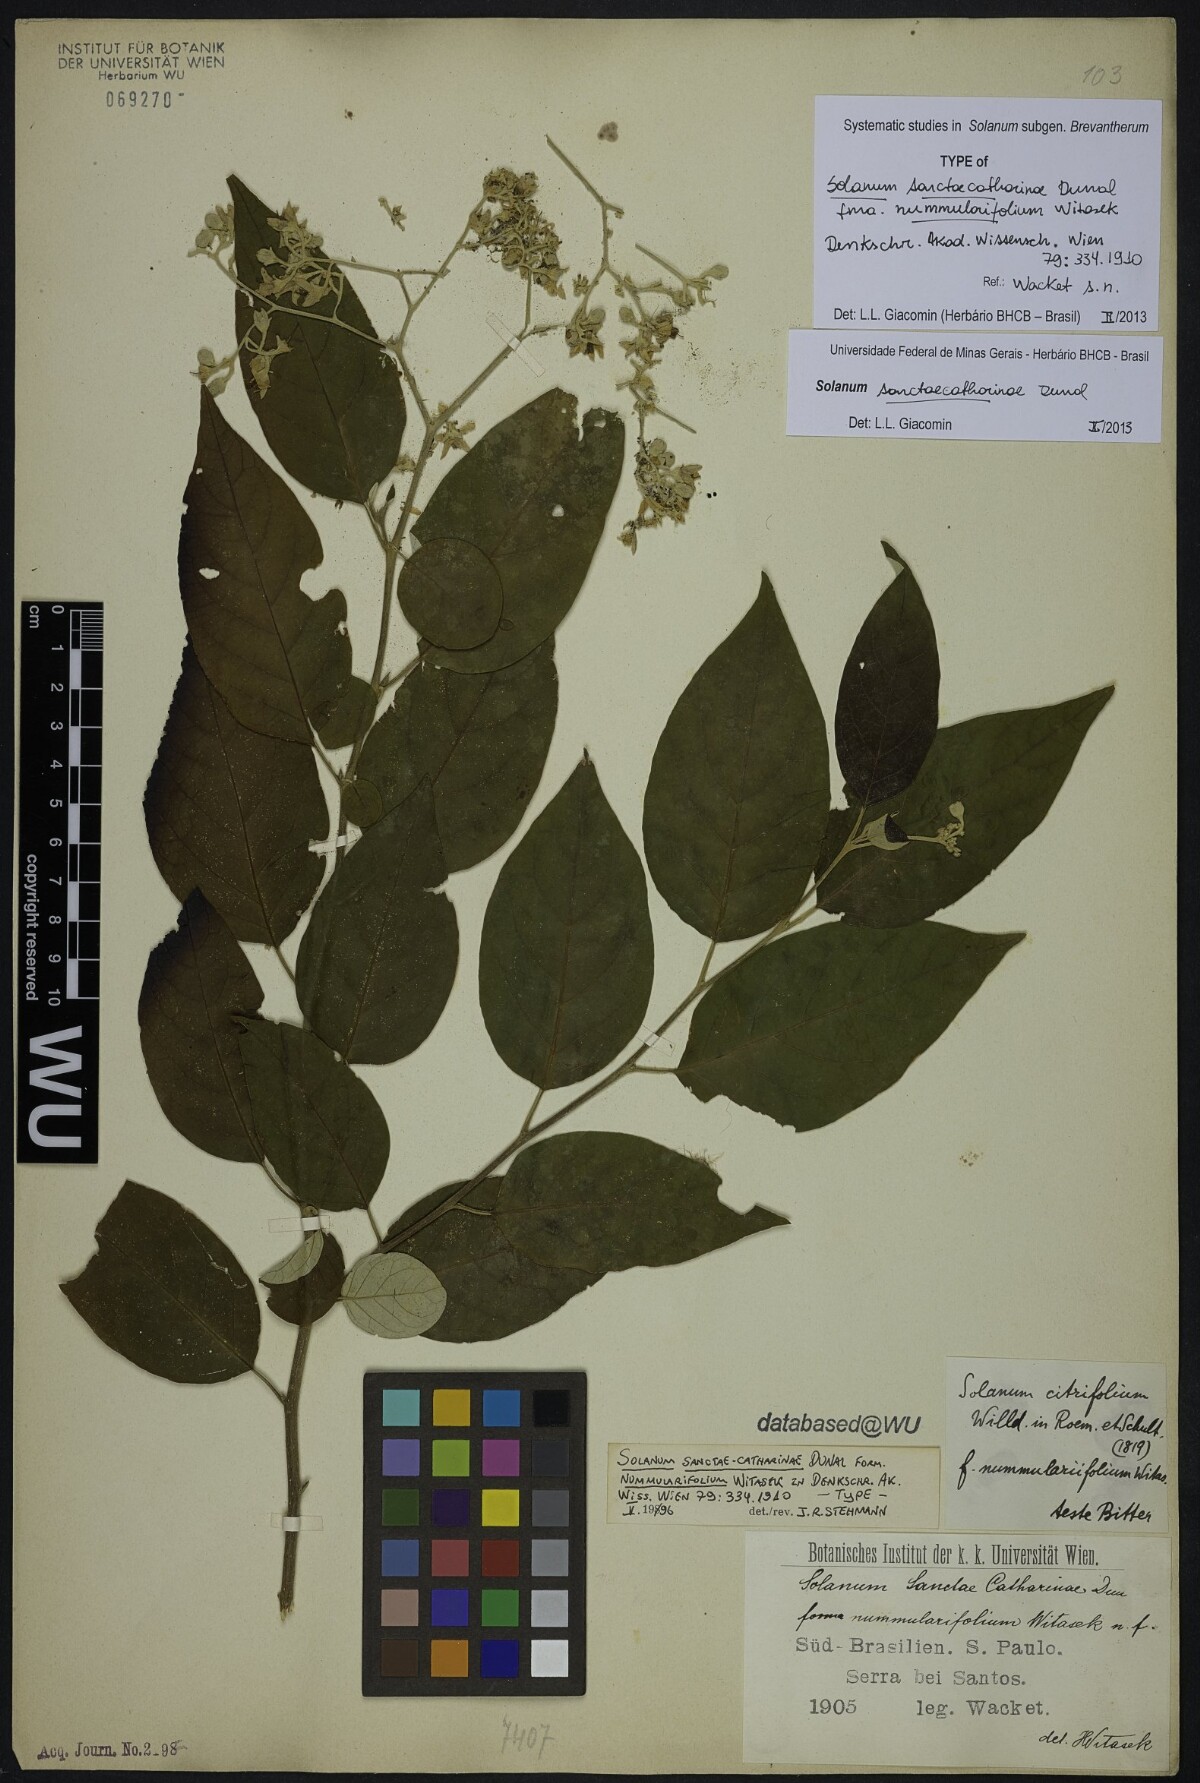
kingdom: Plantae
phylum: Tracheophyta
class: Magnoliopsida
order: Solanales
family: Solanaceae
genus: Solanum
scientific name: Solanum sanctae-catharinae
